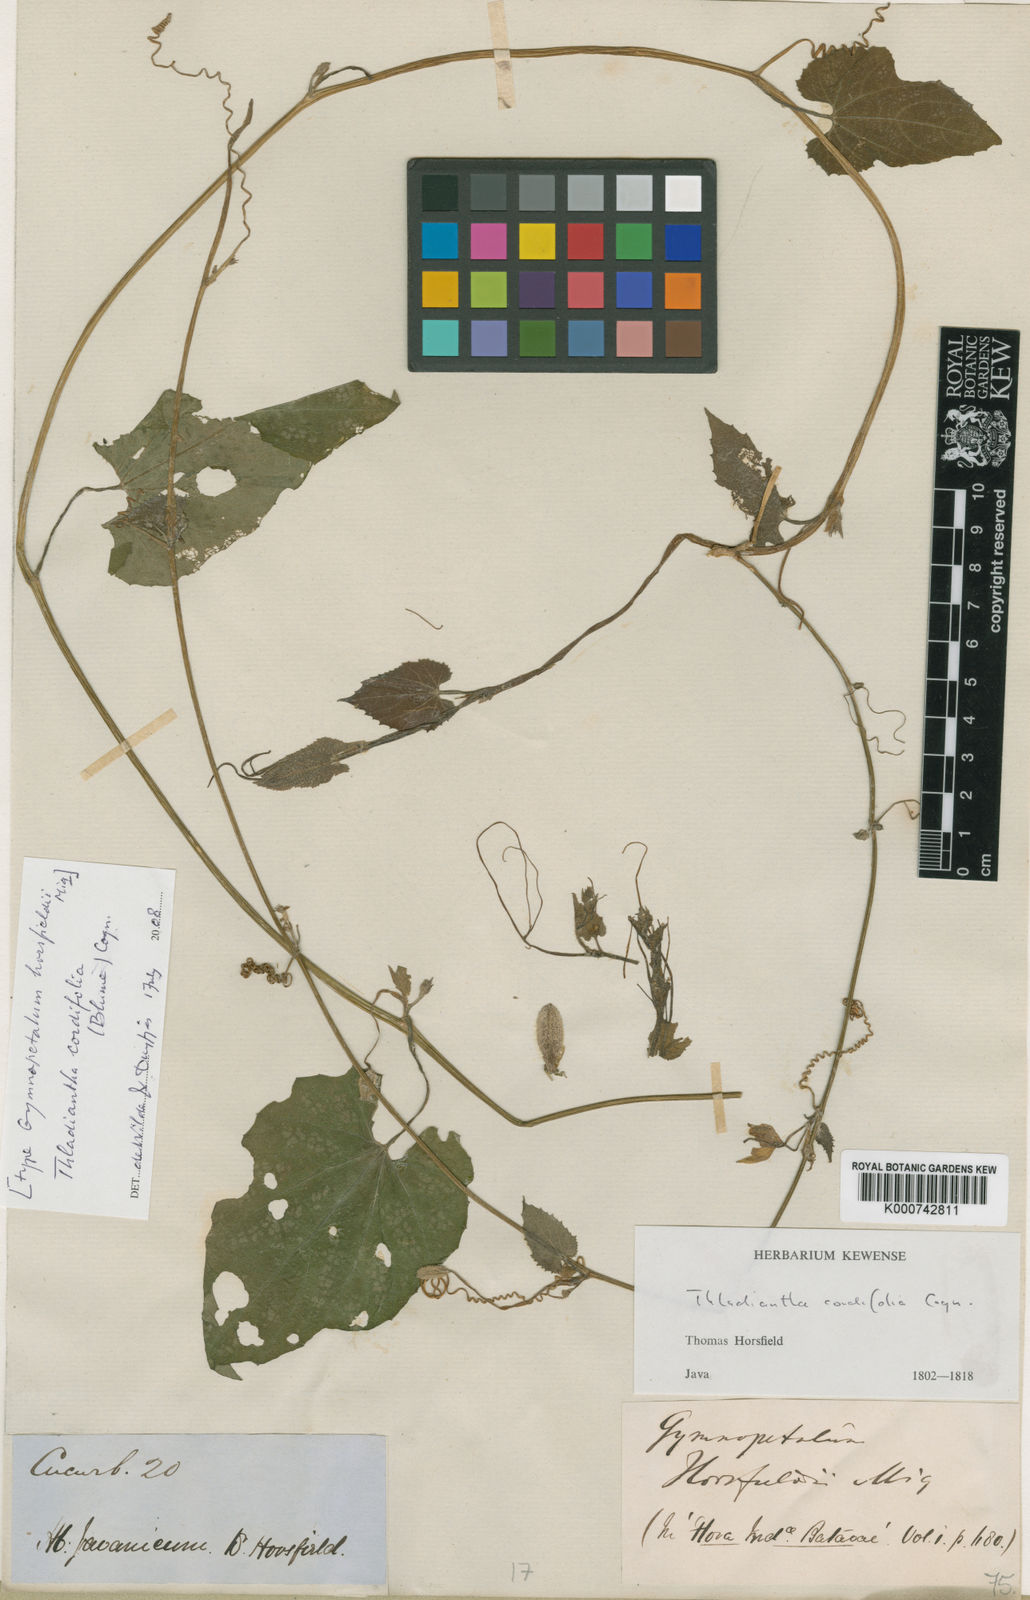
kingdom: Plantae
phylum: Tracheophyta
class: Magnoliopsida
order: Cucurbitales
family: Cucurbitaceae
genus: Thladiantha
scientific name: Thladiantha cordifolia
